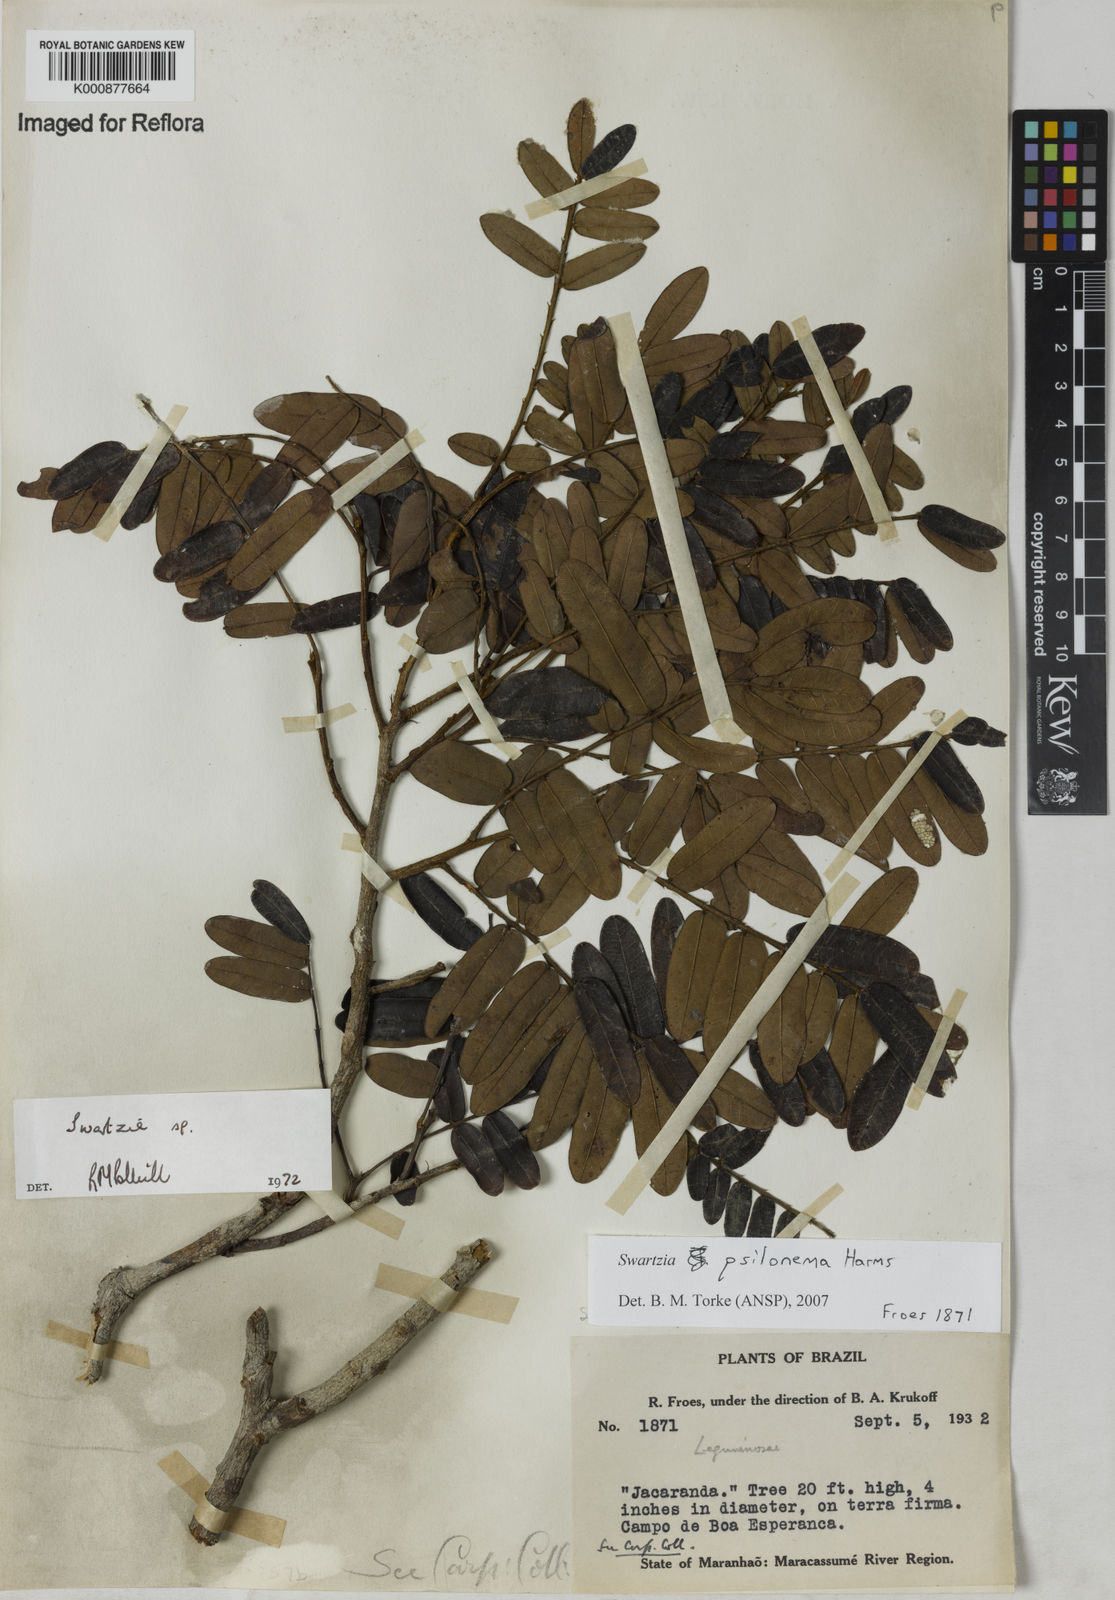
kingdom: Plantae
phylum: Tracheophyta
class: Magnoliopsida
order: Fabales
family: Fabaceae
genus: Swartzia
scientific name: Swartzia psilonema
